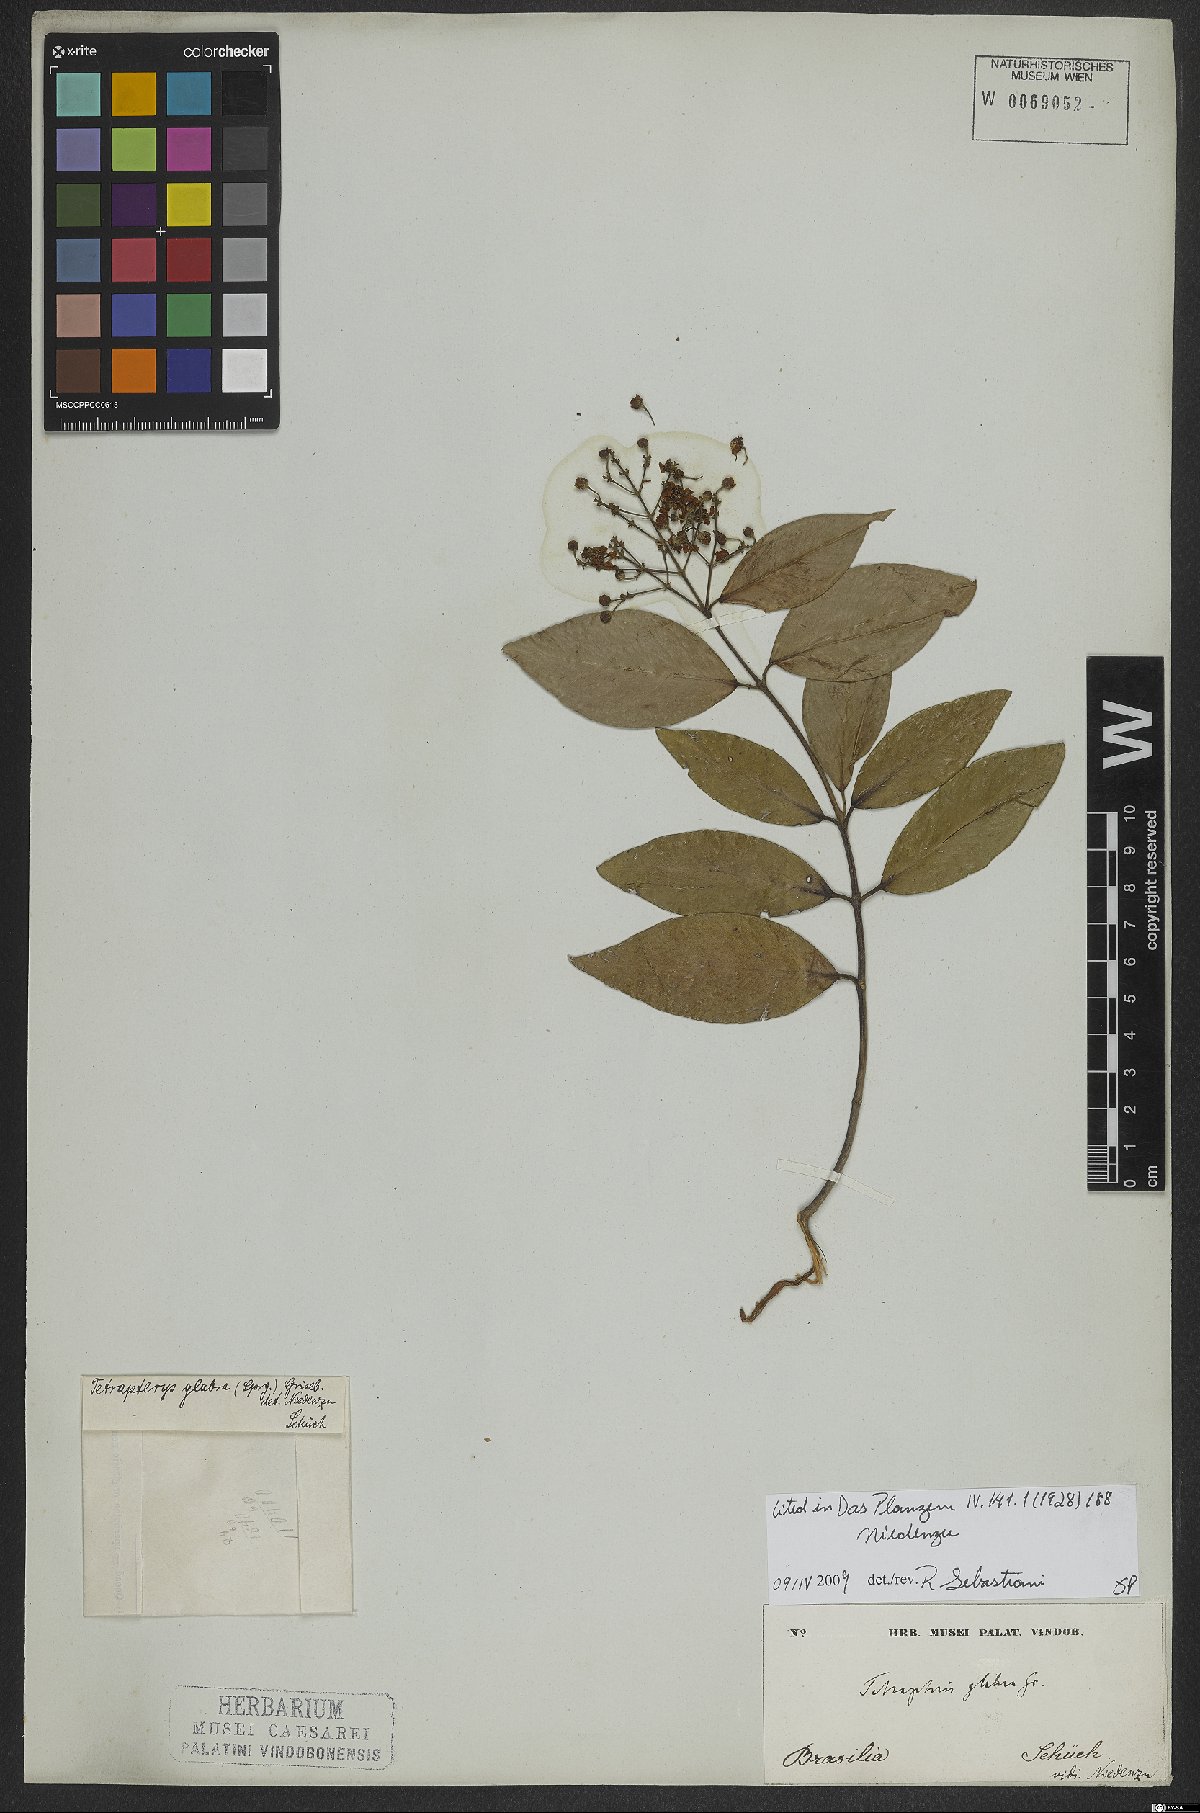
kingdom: Plantae
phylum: Tracheophyta
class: Magnoliopsida
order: Malpighiales
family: Malpighiaceae
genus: Niedenzuella
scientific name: Niedenzuella glabra
